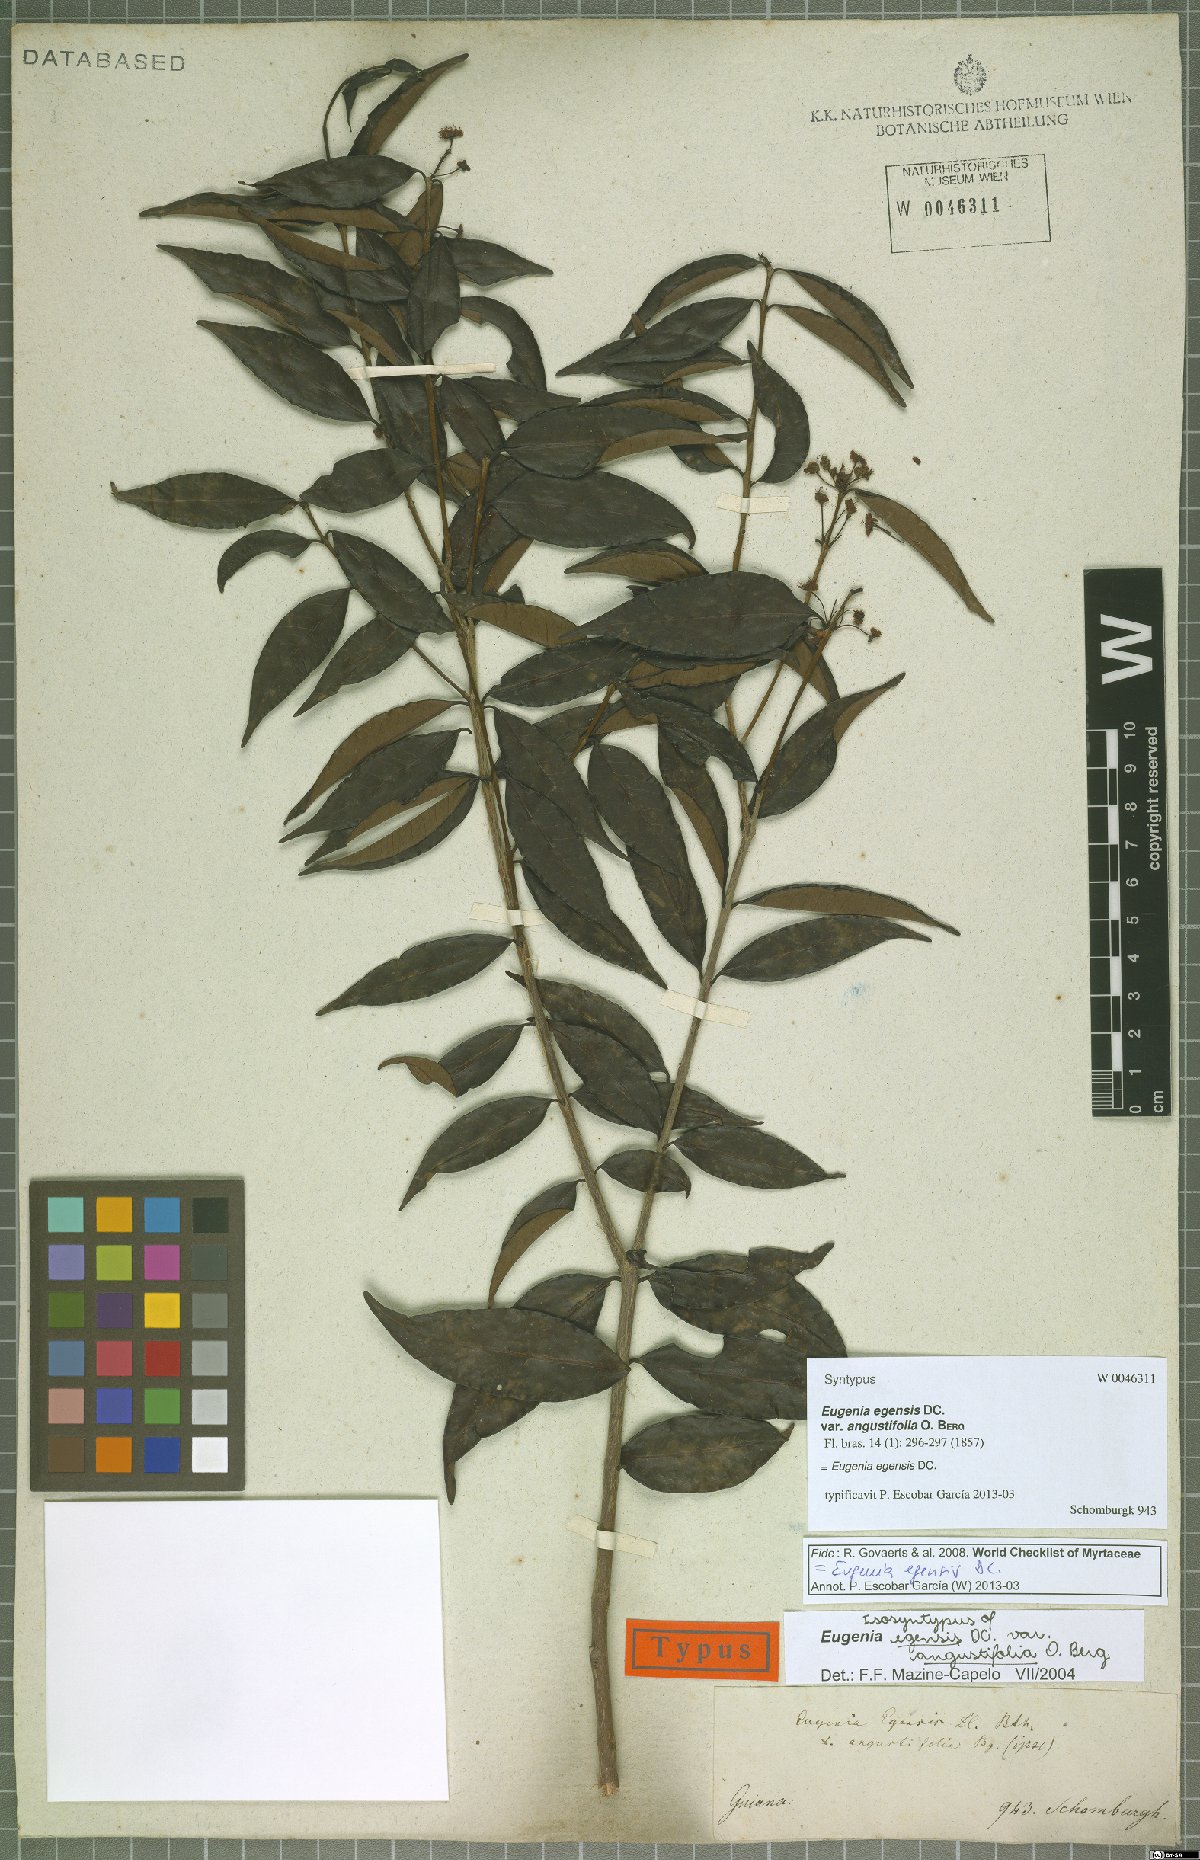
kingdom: Plantae
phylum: Tracheophyta
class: Magnoliopsida
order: Myrtales
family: Myrtaceae
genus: Eugenia
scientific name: Eugenia egensis
